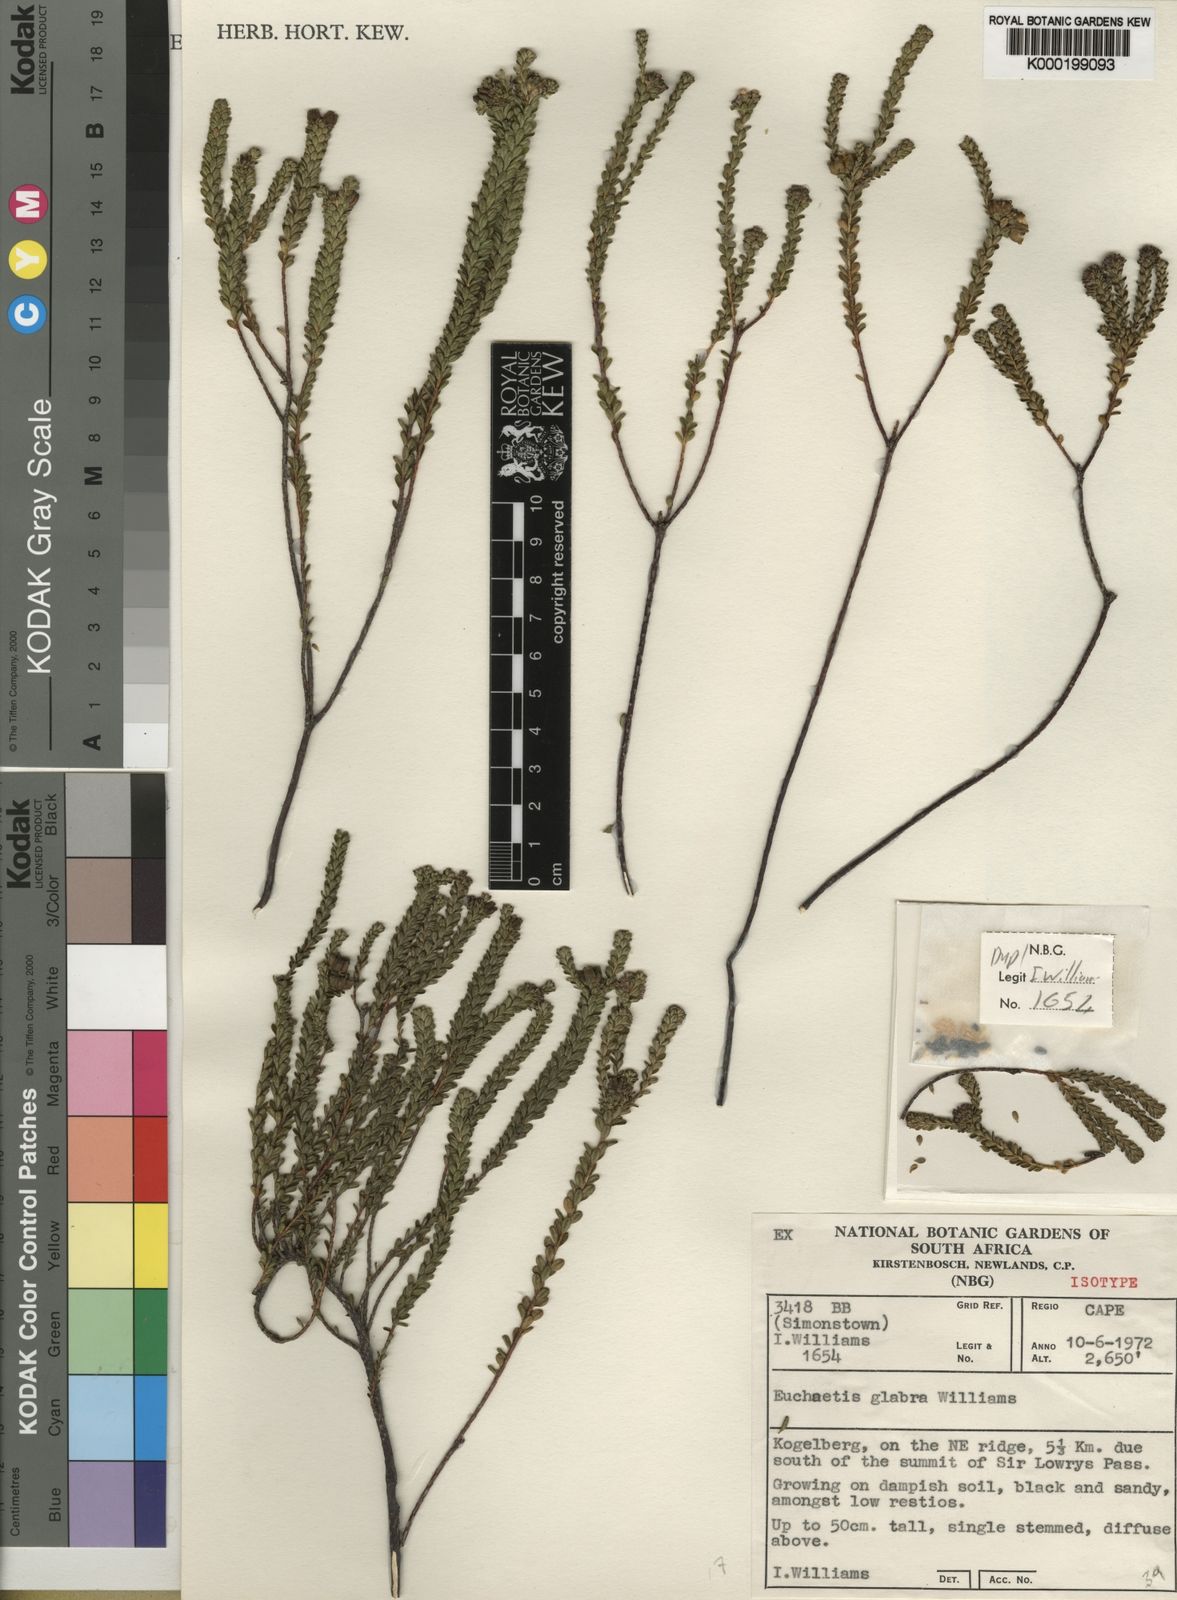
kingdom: Plantae
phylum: Tracheophyta
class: Magnoliopsida
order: Sapindales
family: Rutaceae
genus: Euchaetis
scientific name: Euchaetis glabra
